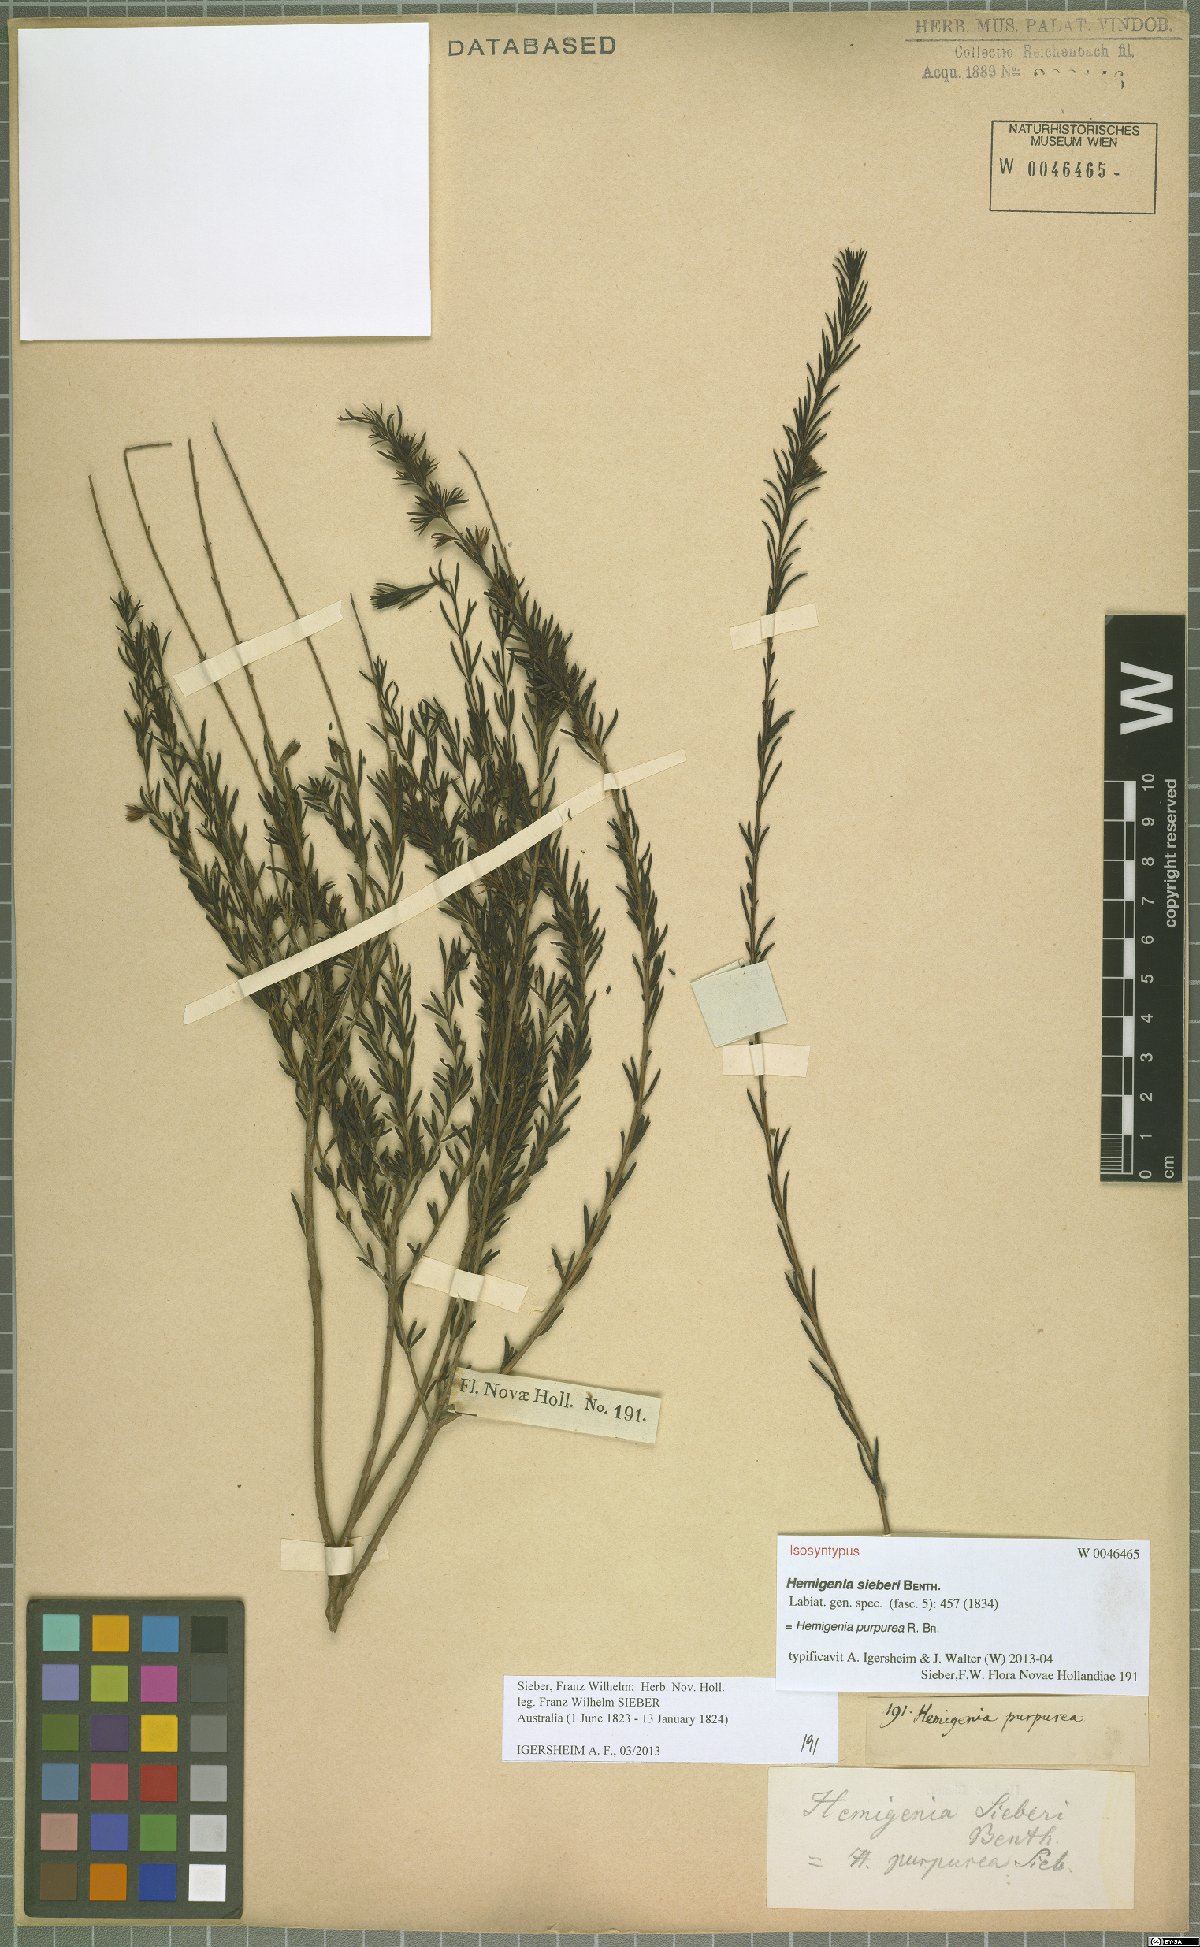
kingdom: Plantae
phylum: Tracheophyta
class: Magnoliopsida
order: Lamiales
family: Lamiaceae
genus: Hemigenia
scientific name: Hemigenia purpurea
